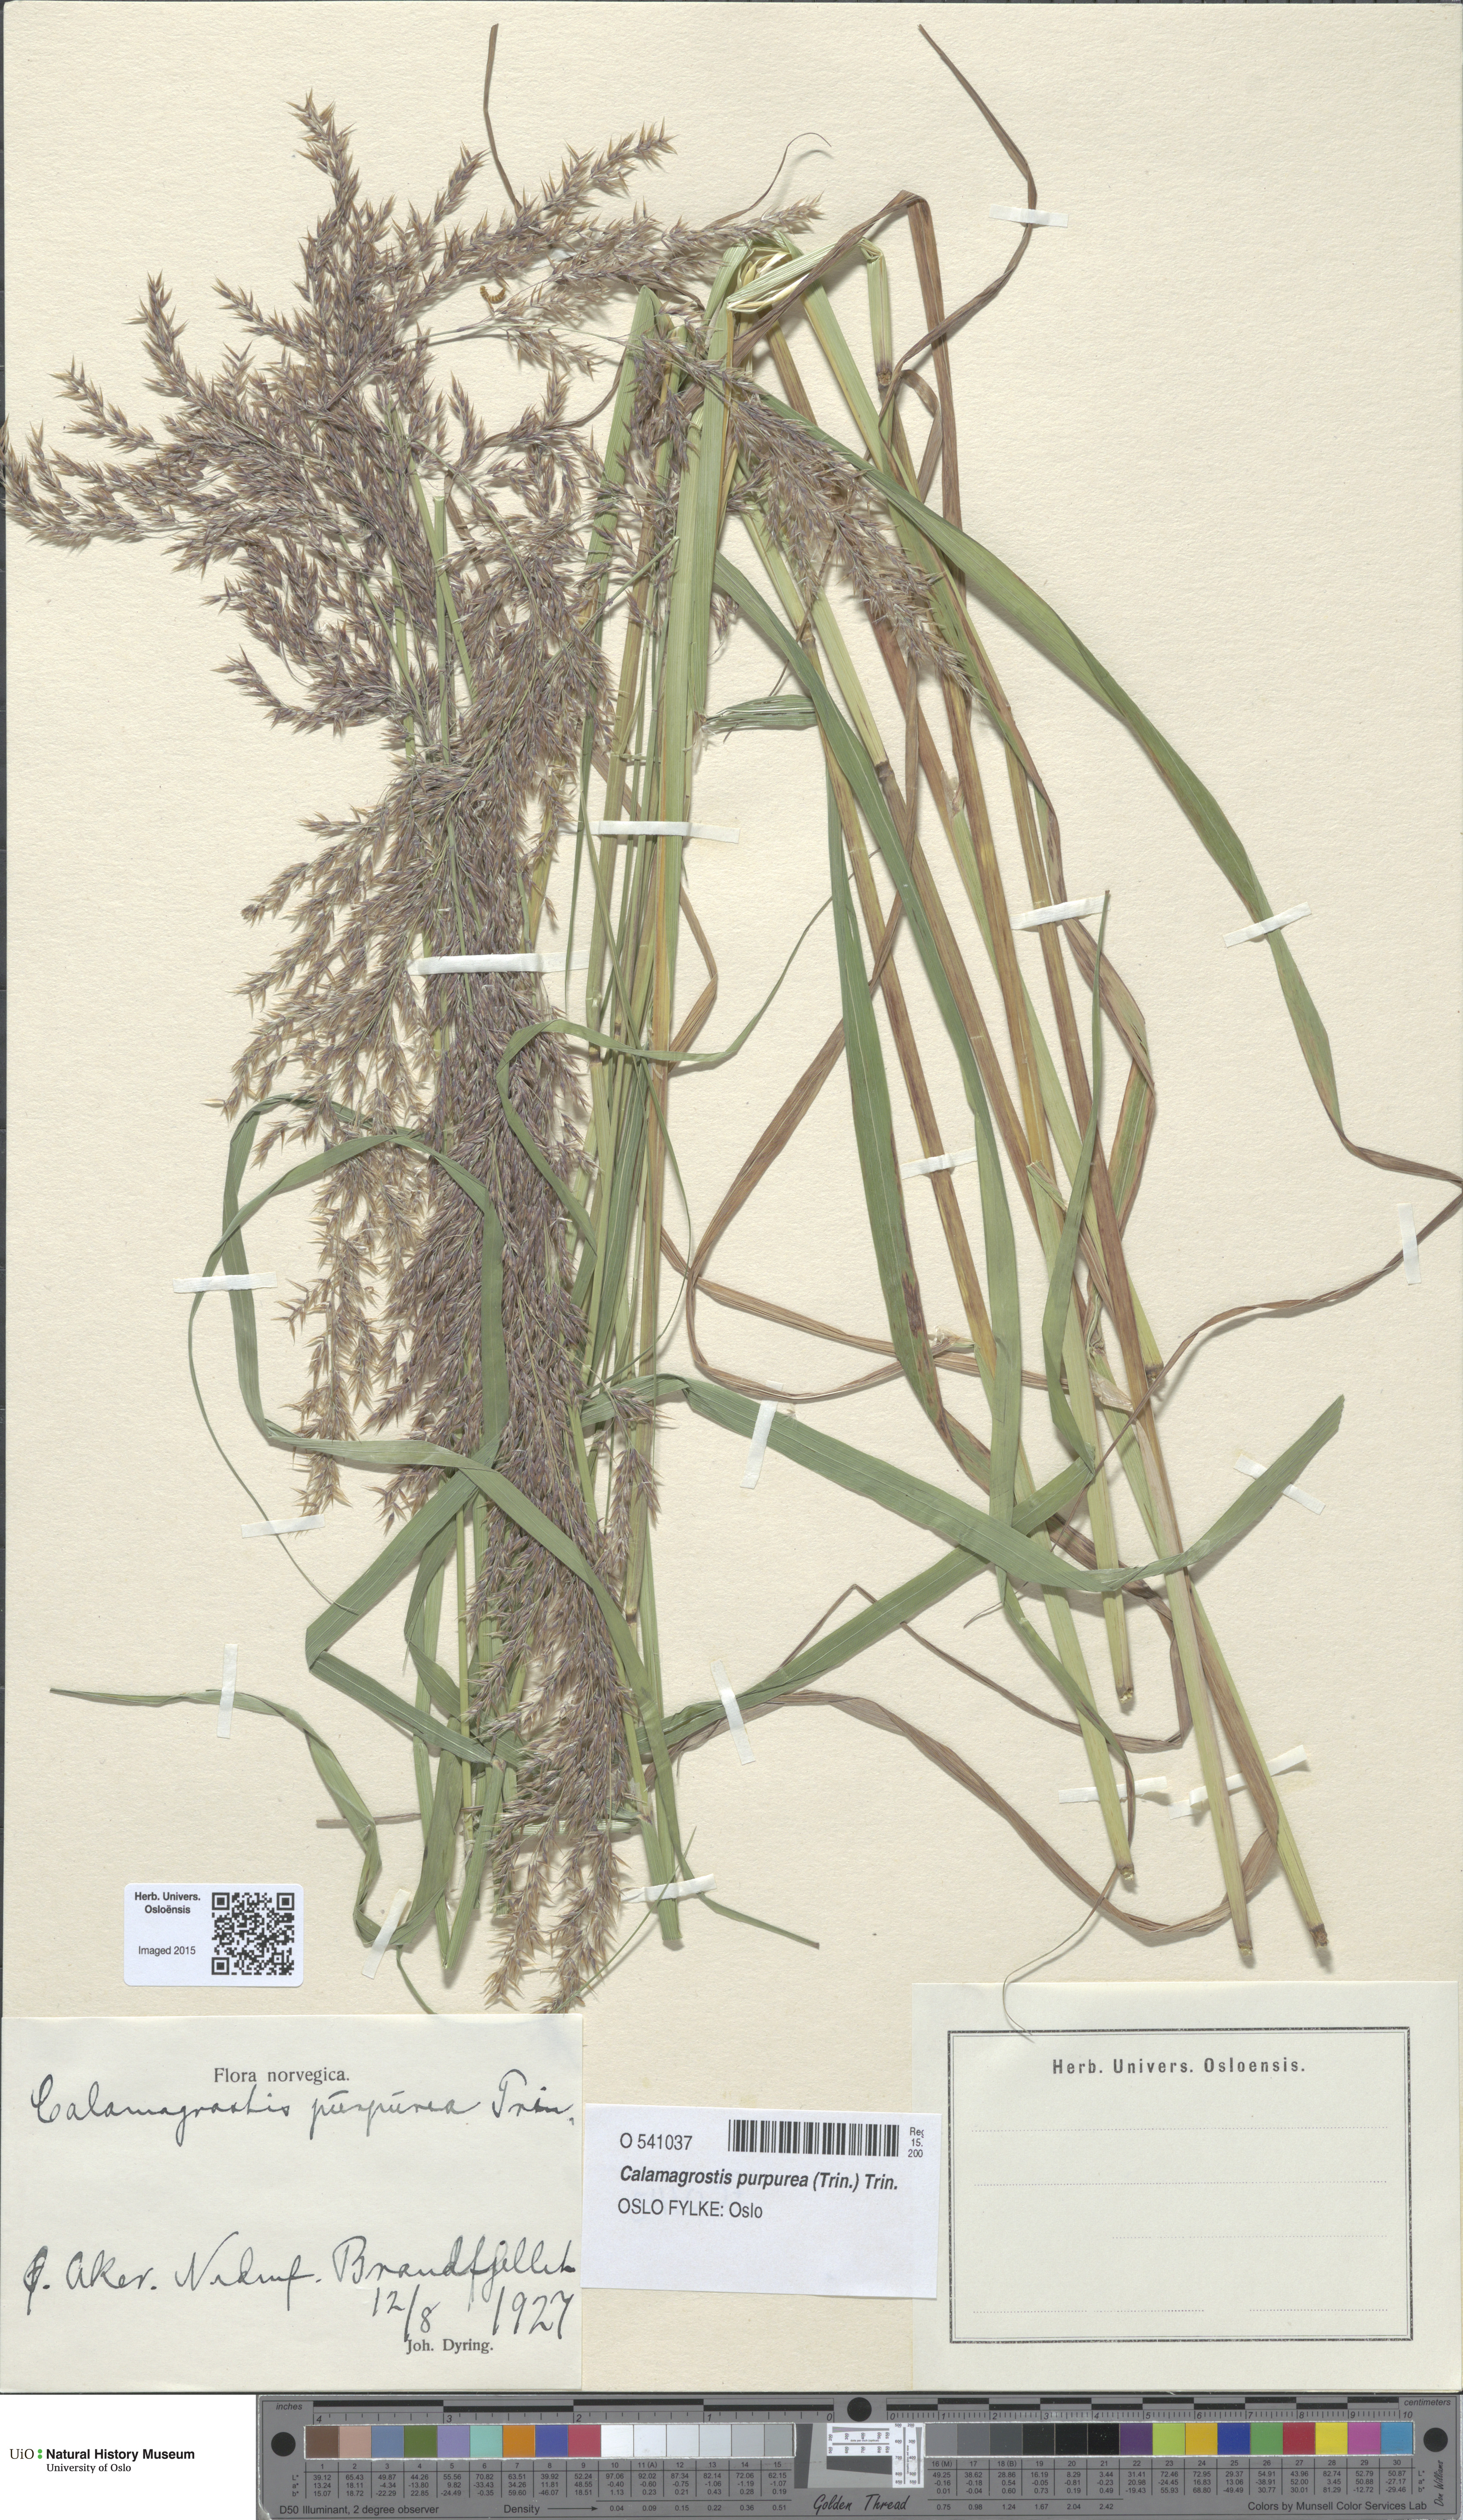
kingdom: Plantae
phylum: Tracheophyta
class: Liliopsida
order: Poales
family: Poaceae
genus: Calamagrostis
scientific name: Calamagrostis purpurea
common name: Scandinavian small-reed
